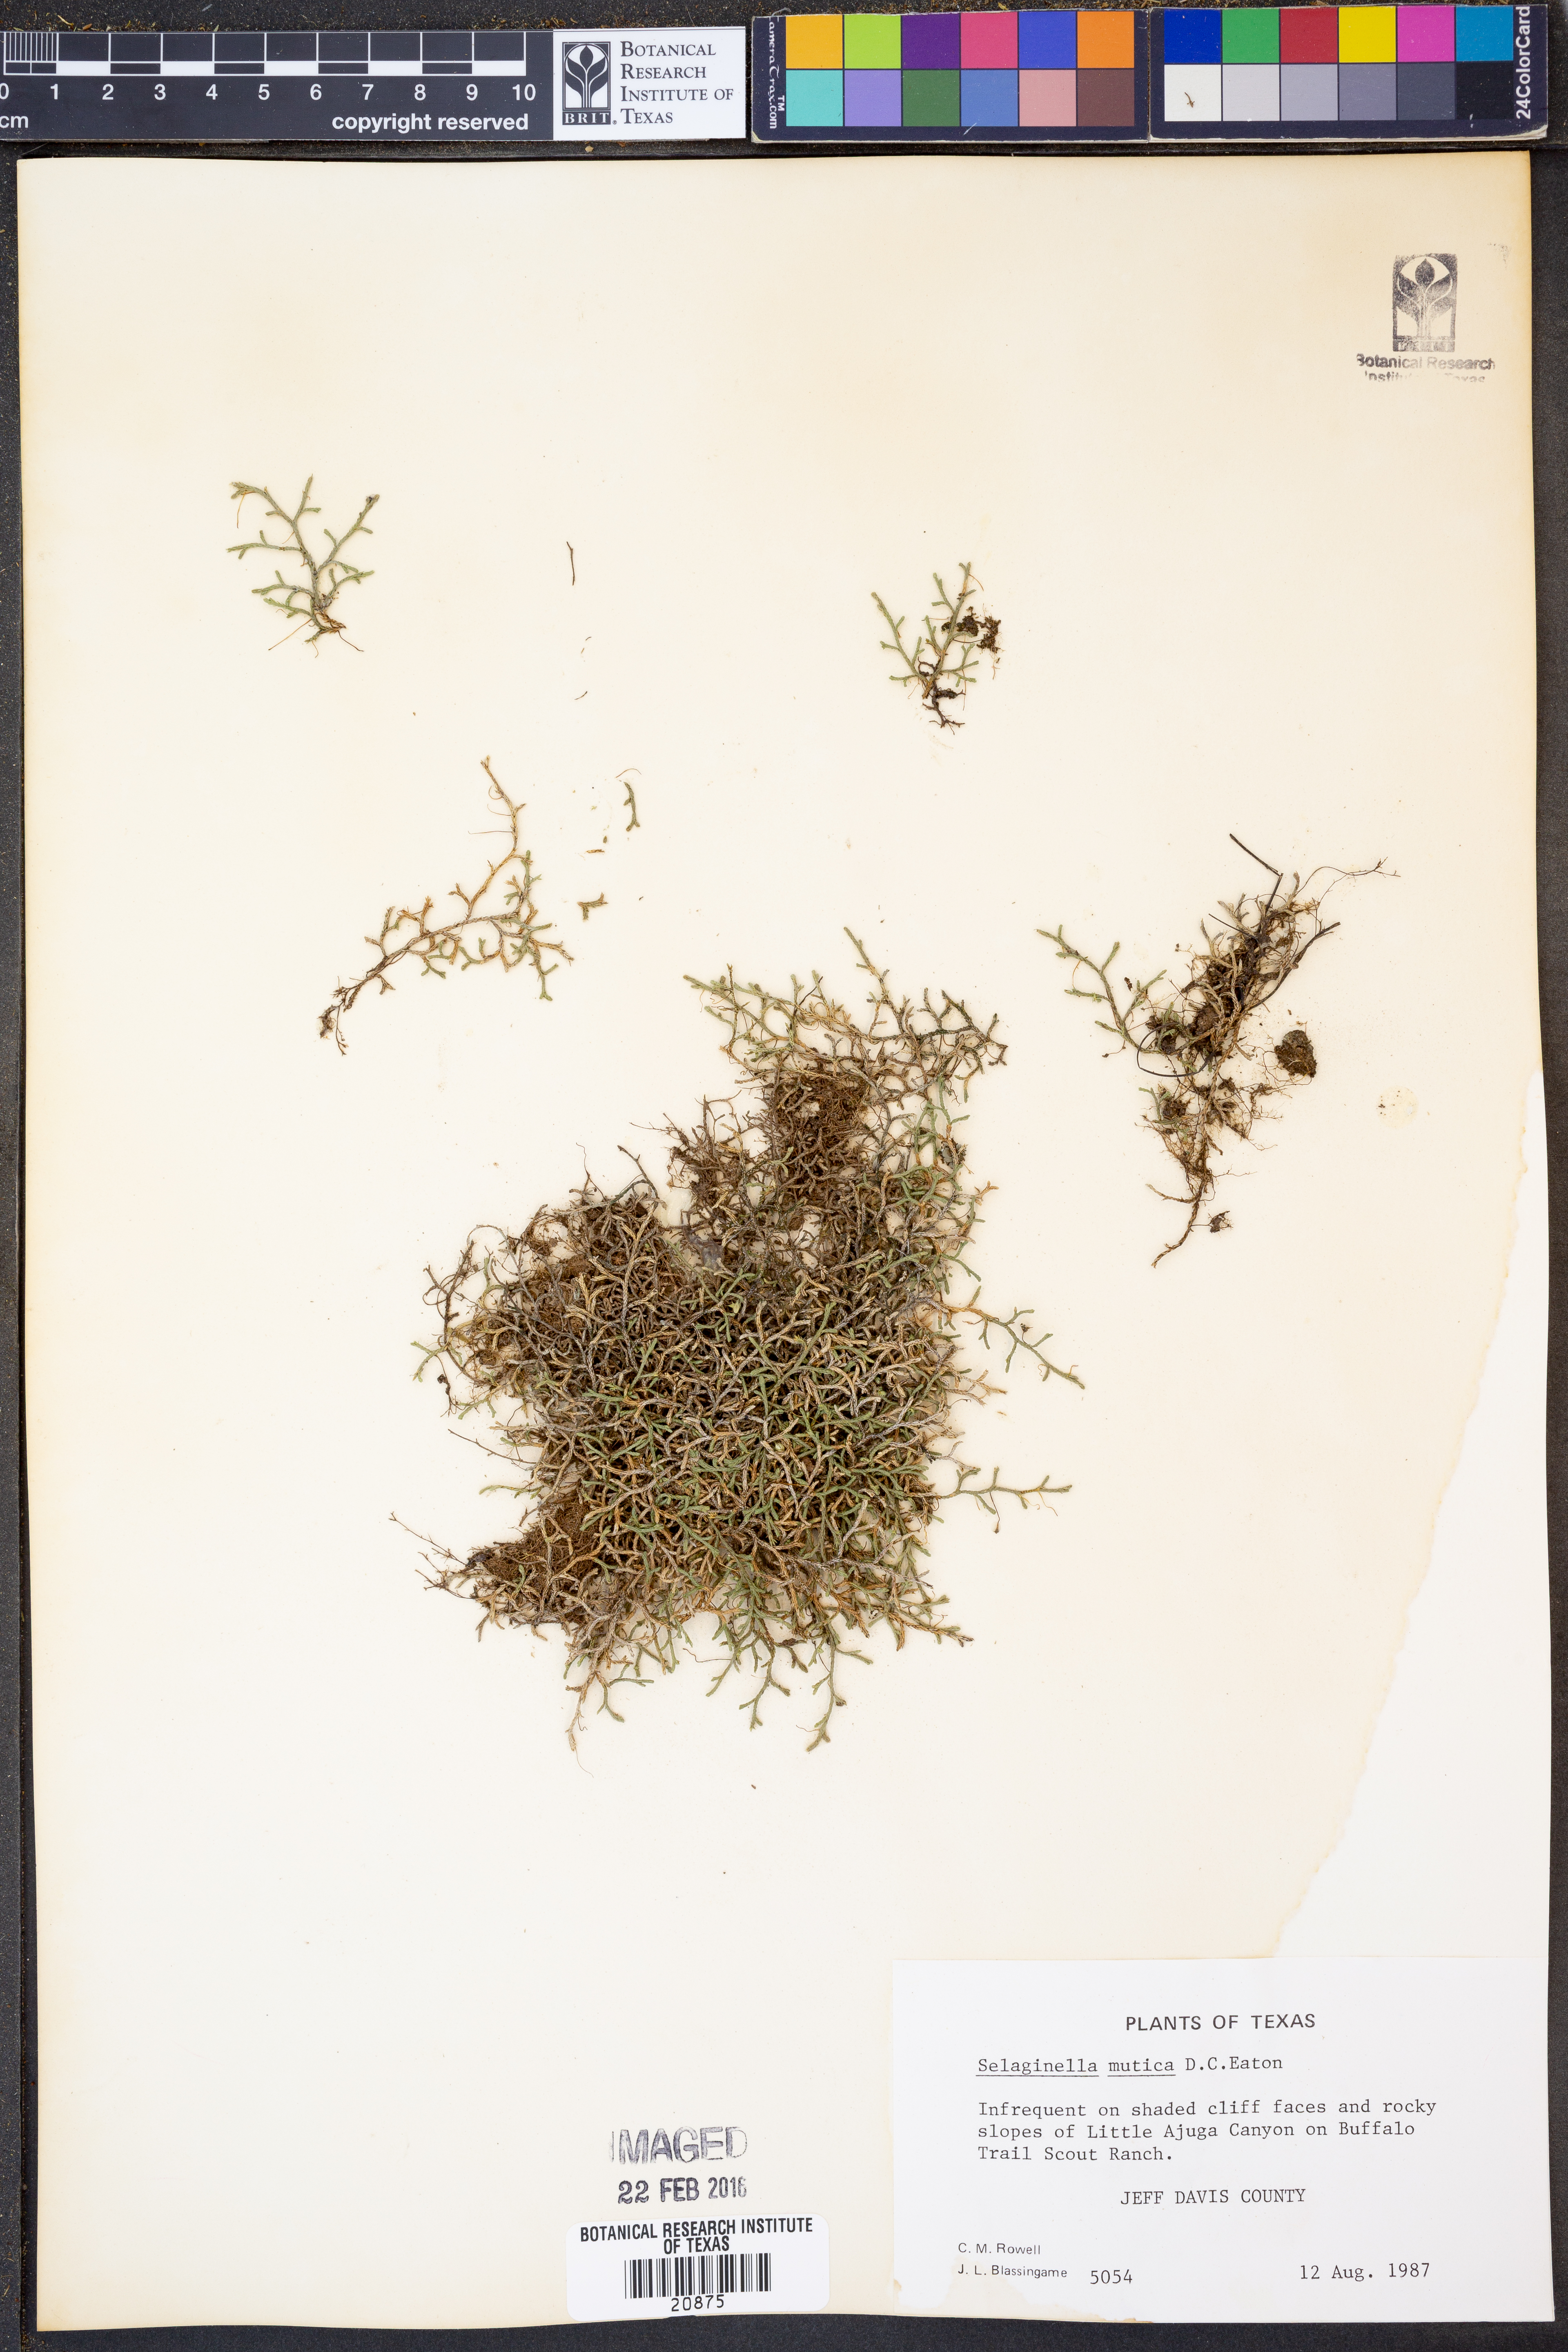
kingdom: Plantae
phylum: Tracheophyta
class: Lycopodiopsida
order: Selaginellales
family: Selaginellaceae
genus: Selaginella
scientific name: Selaginella mutica
